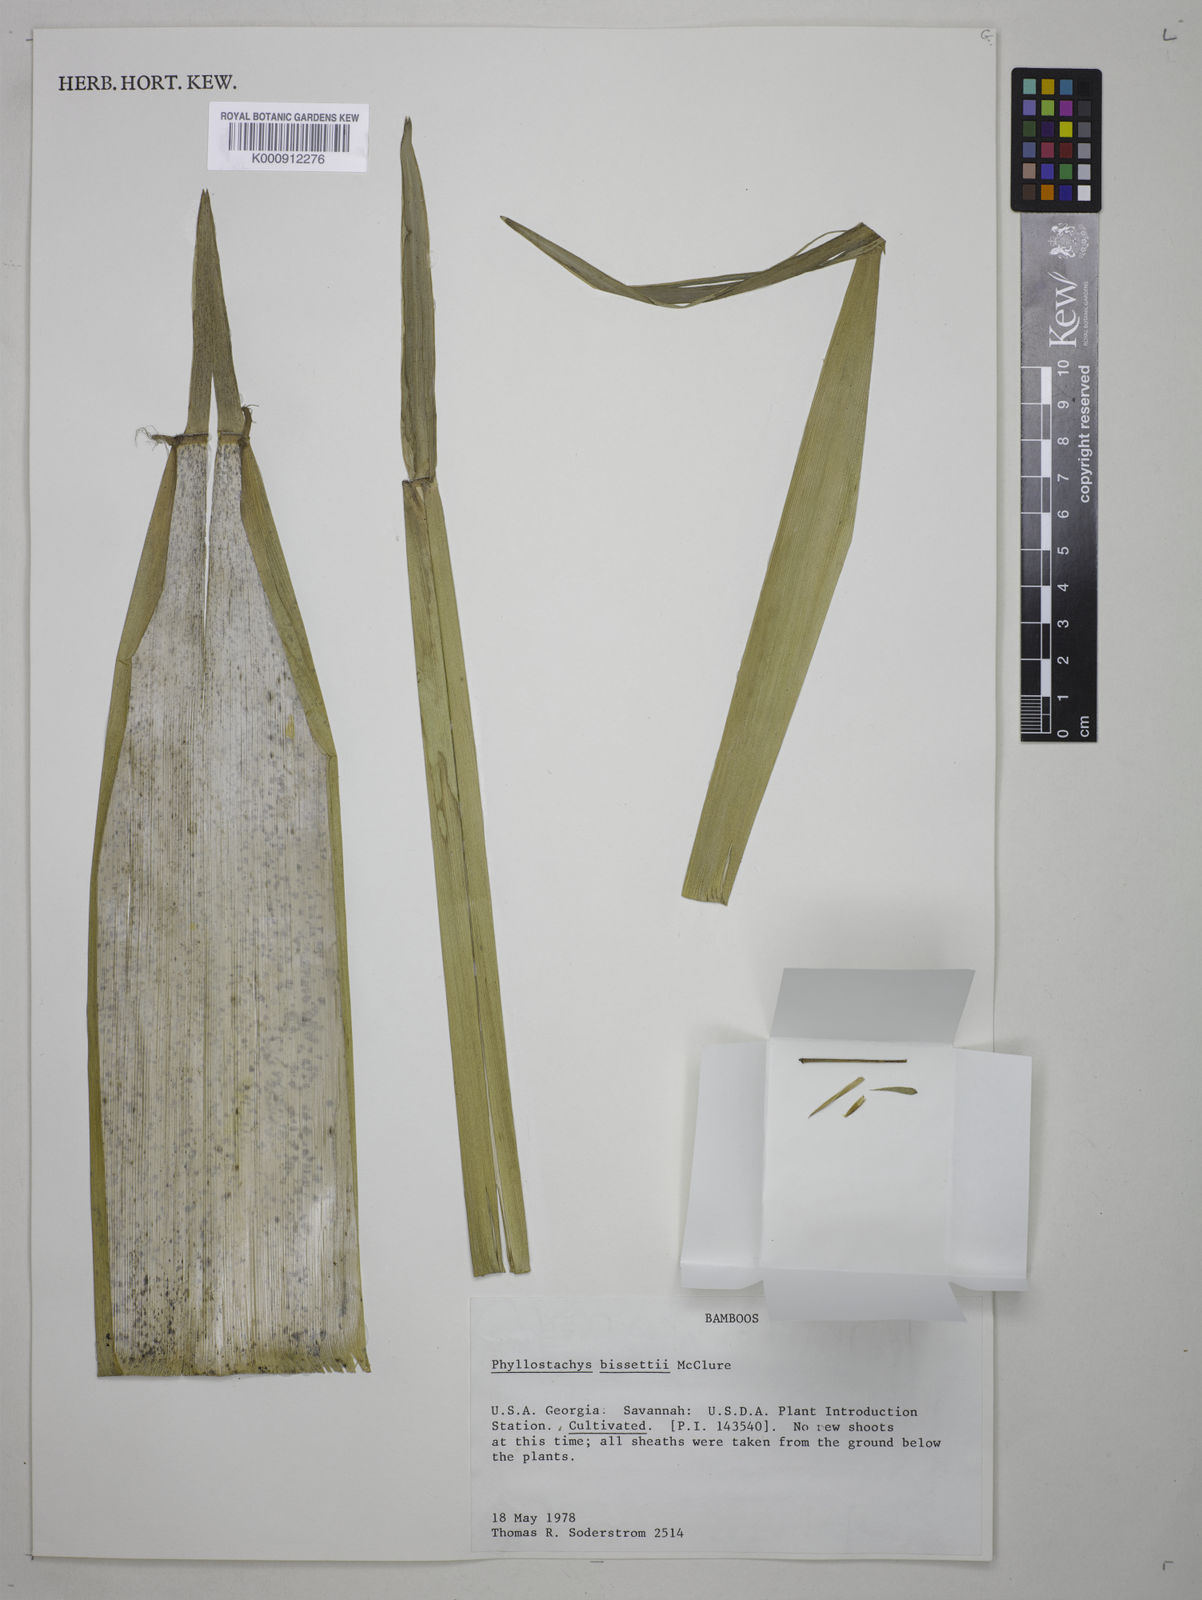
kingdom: Plantae
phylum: Tracheophyta
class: Liliopsida
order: Poales
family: Poaceae
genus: Phyllostachys
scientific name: Phyllostachys bissetii
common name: Bamboo
